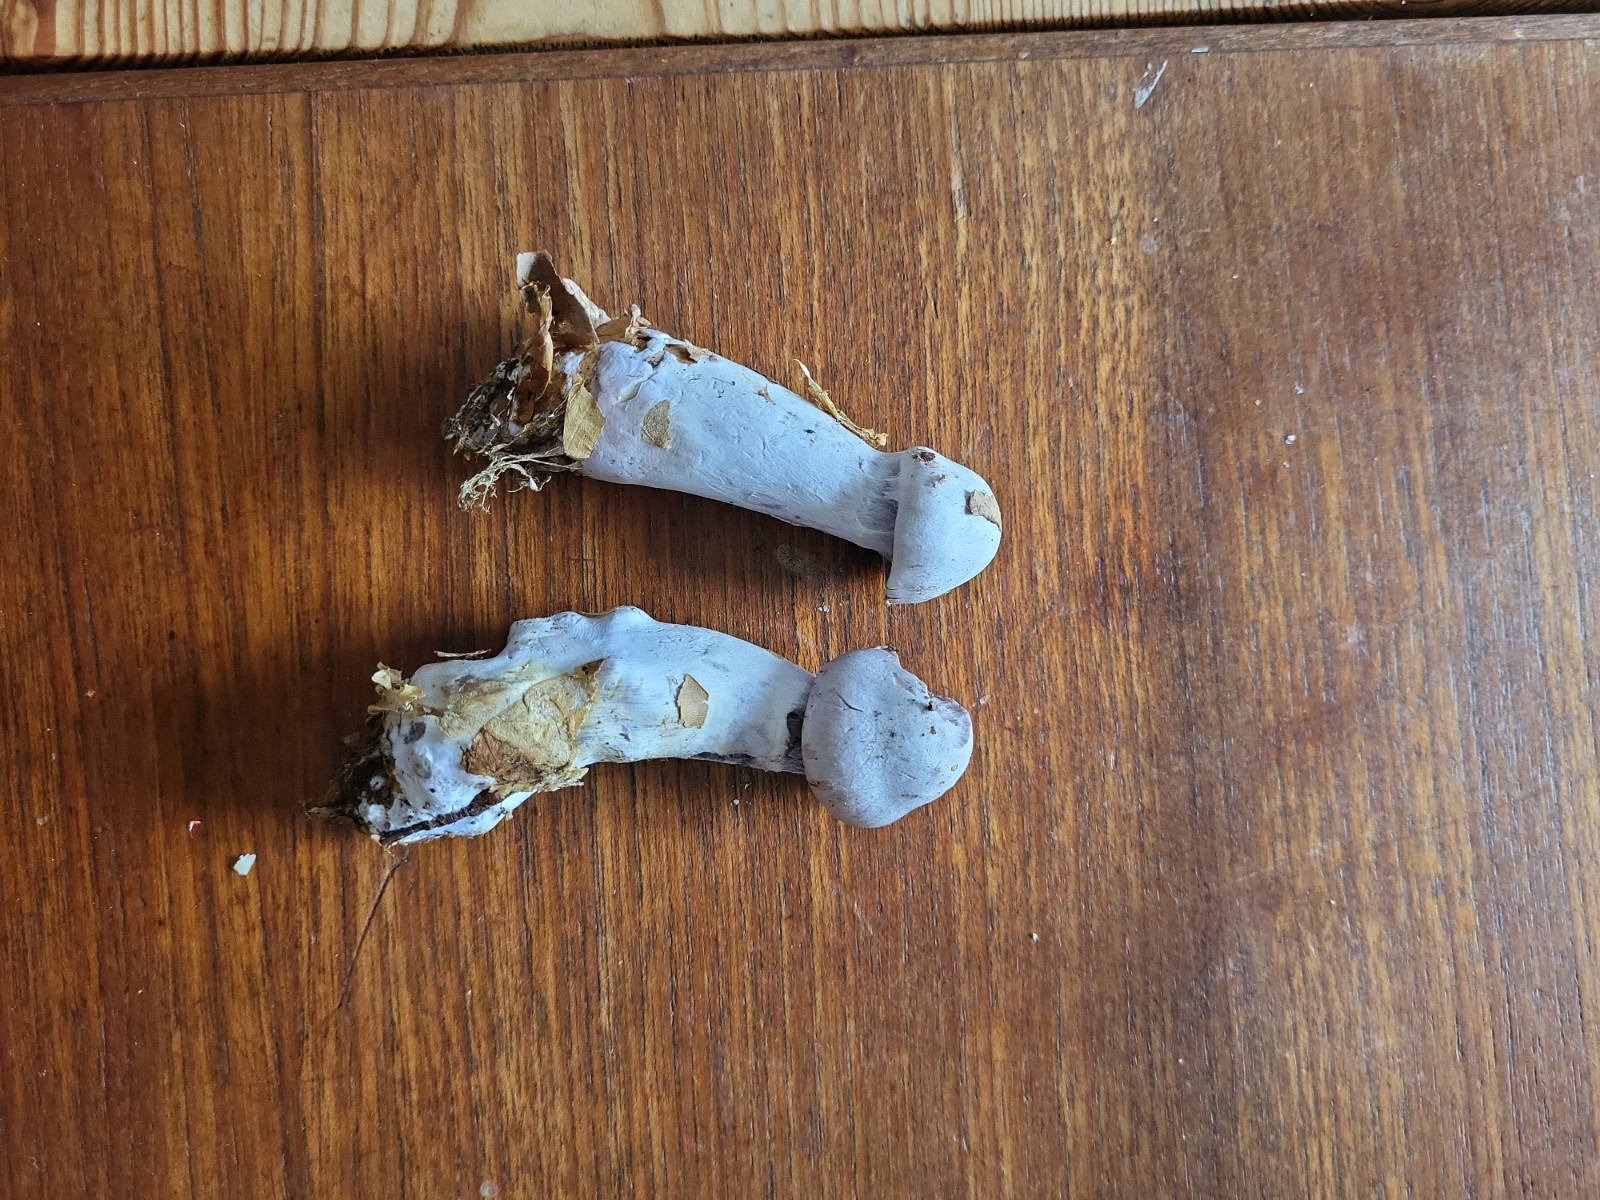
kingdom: Fungi
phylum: Basidiomycota
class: Agaricomycetes
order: Agaricales
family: Cortinariaceae
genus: Cortinarius
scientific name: Cortinarius alboviolaceus
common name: lysviolet slørhat
